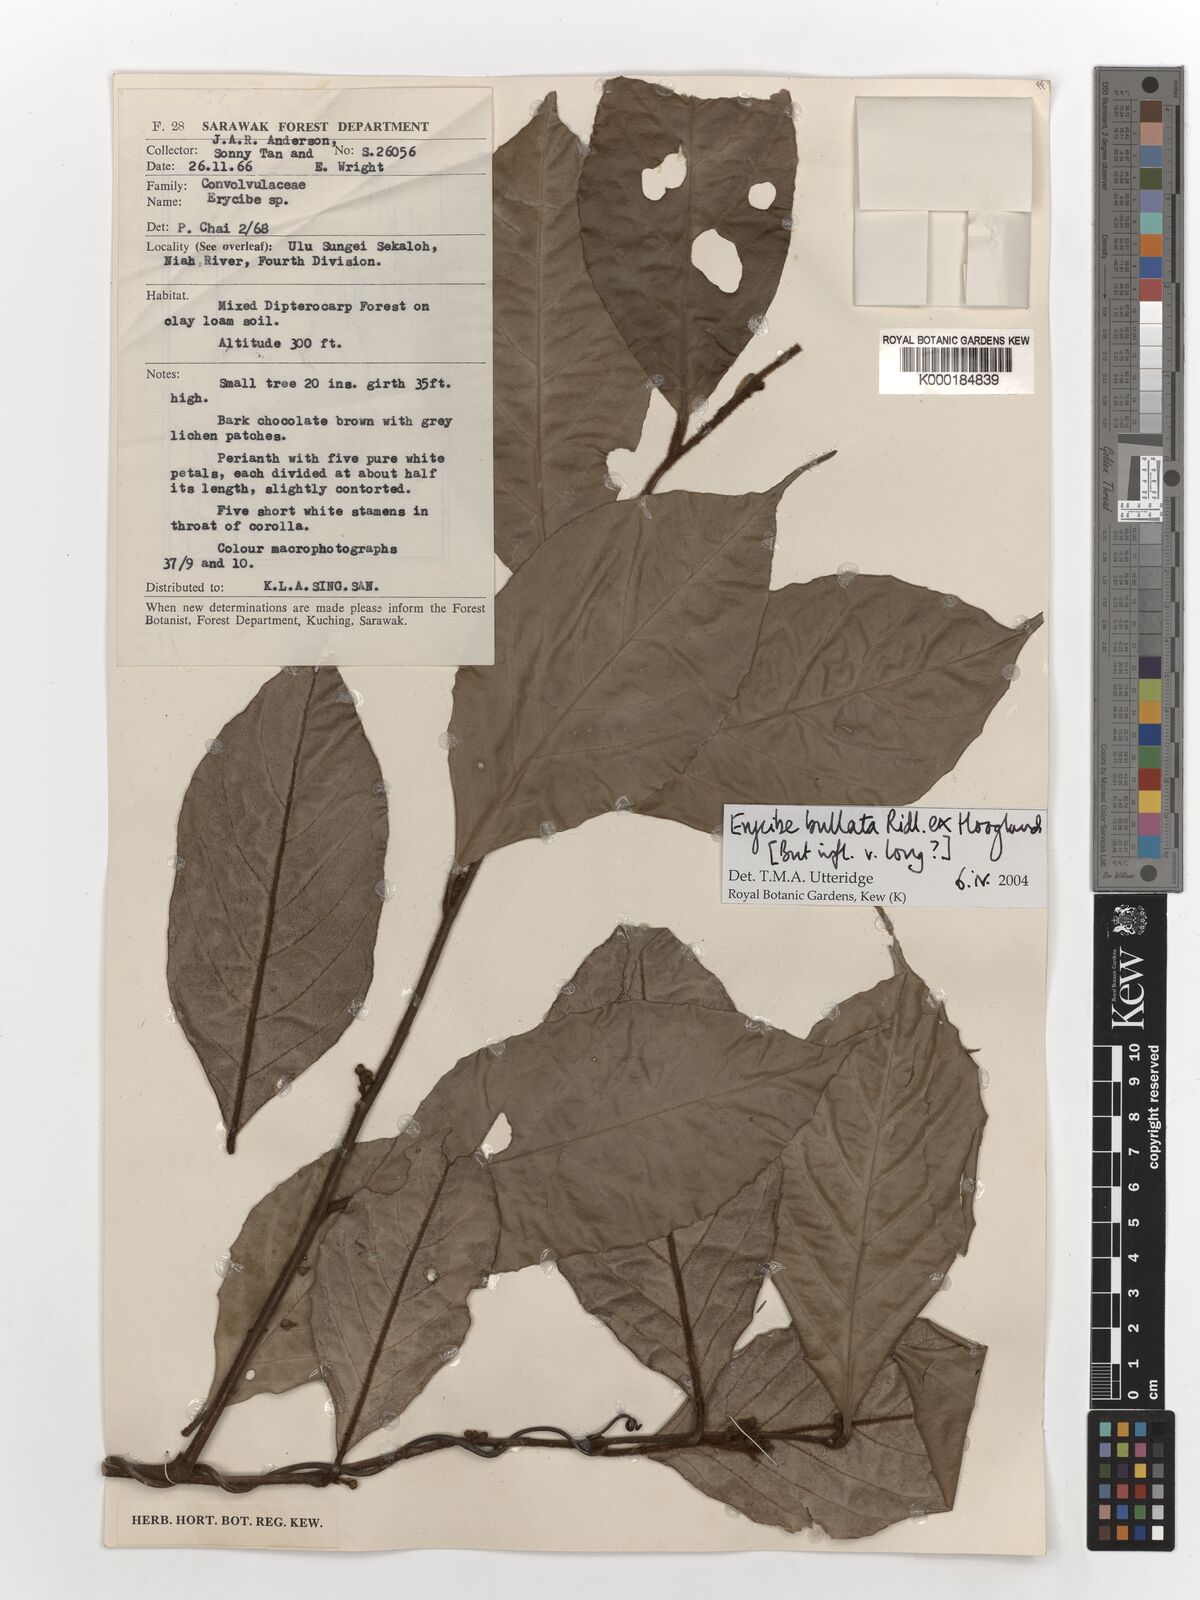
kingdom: Plantae
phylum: Tracheophyta
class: Magnoliopsida
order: Solanales
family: Convolvulaceae
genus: Erycibe
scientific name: Erycibe bullata
